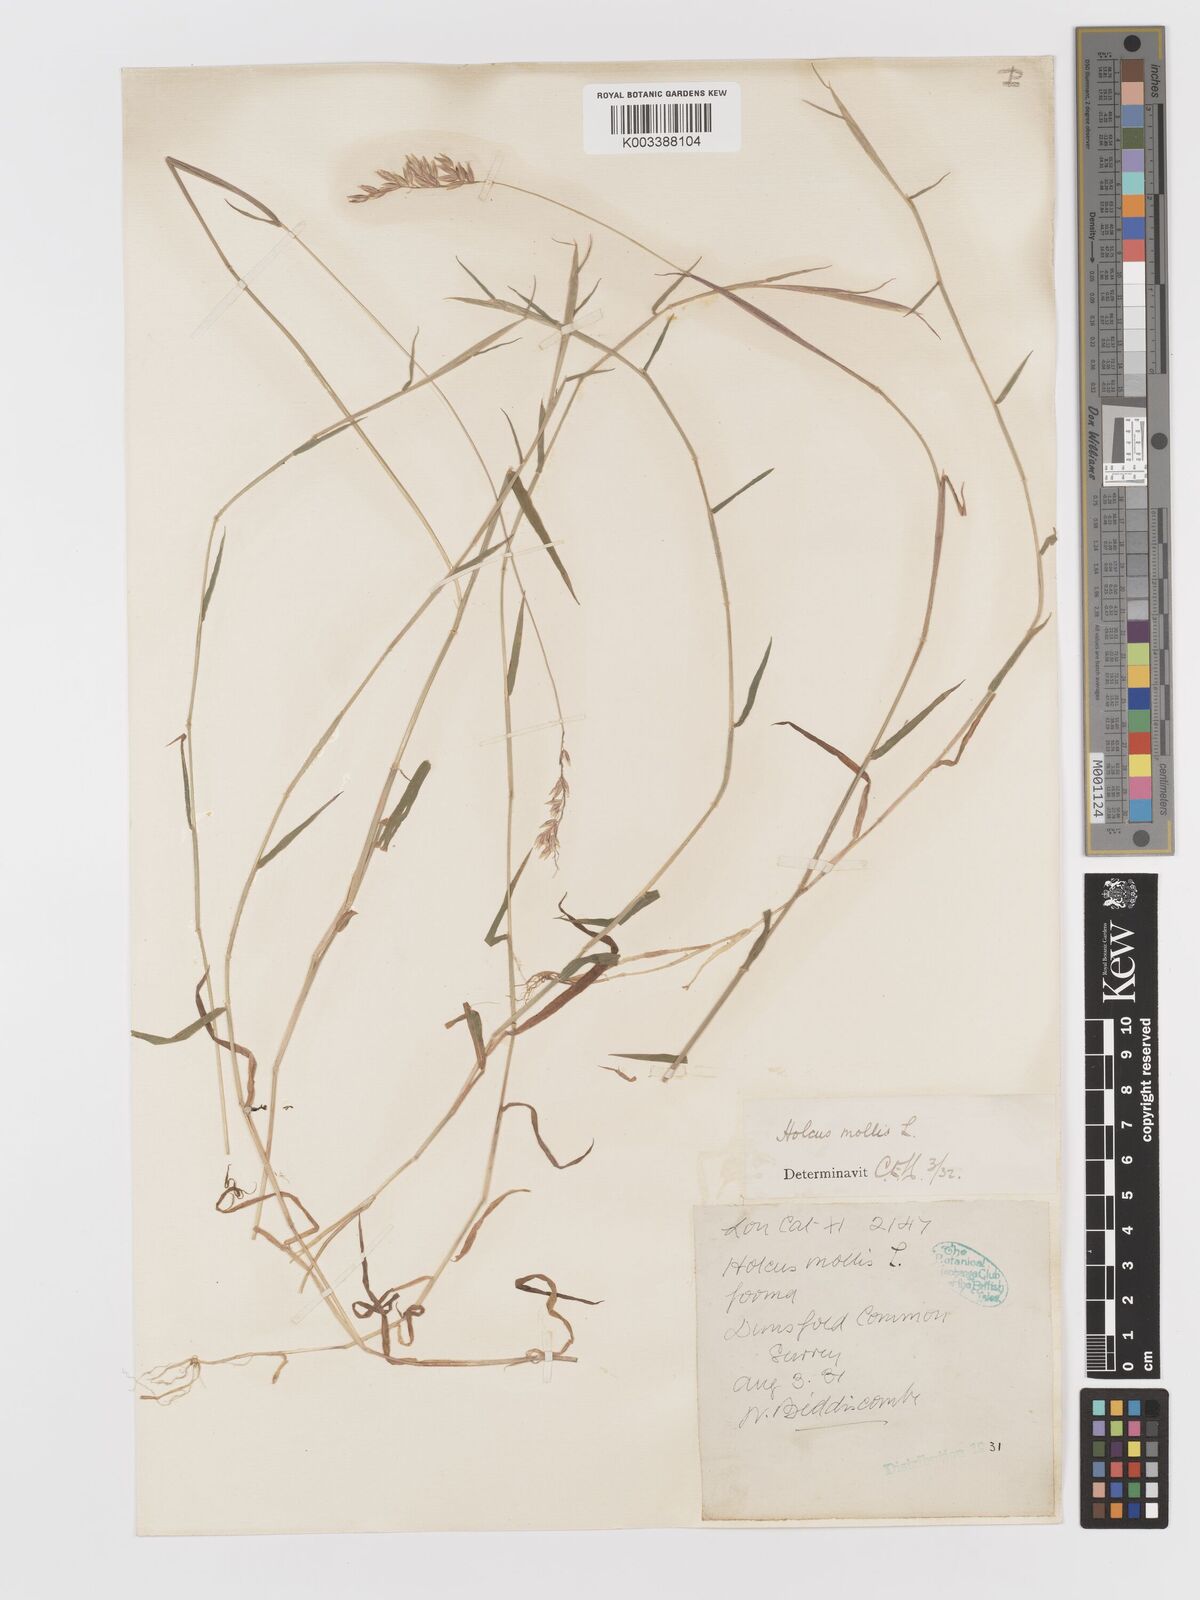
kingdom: Plantae
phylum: Tracheophyta
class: Liliopsida
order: Poales
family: Poaceae
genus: Holcus
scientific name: Holcus mollis
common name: Creeping velvetgrass
